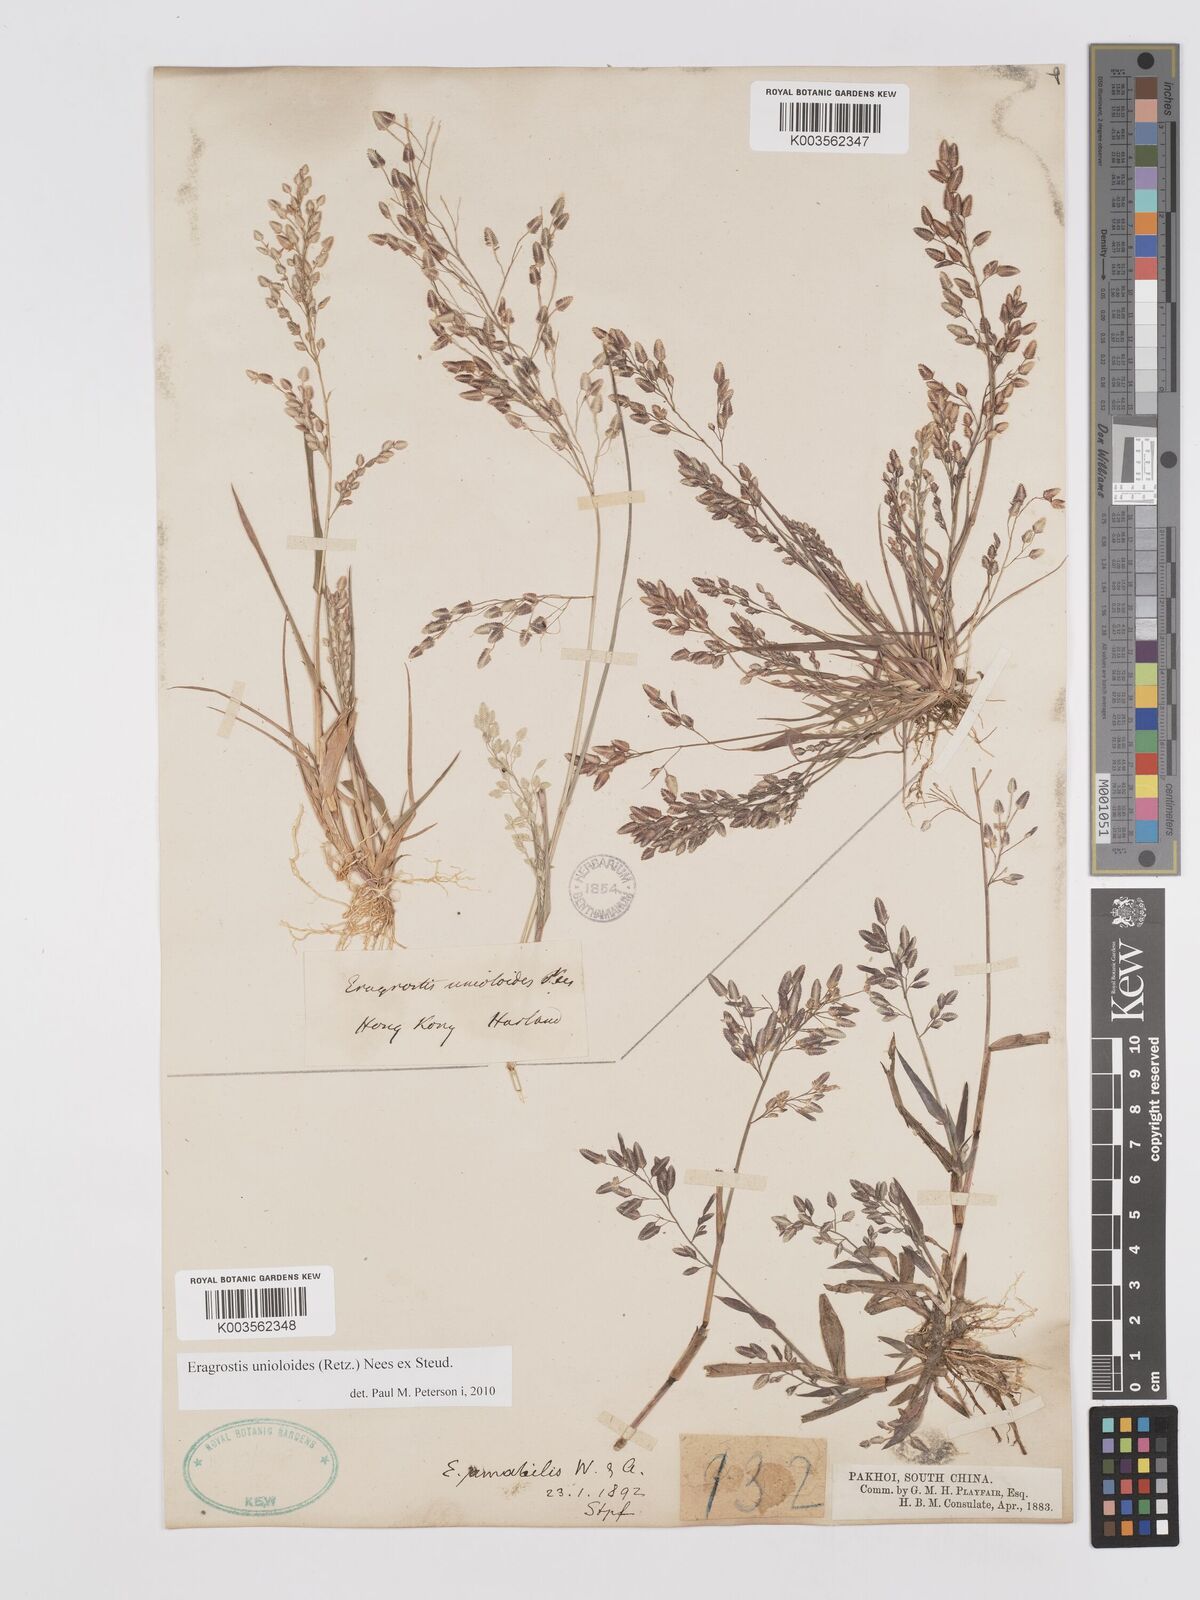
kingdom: Plantae
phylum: Tracheophyta
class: Liliopsida
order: Poales
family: Poaceae
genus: Eragrostis
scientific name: Eragrostis unioloides
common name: Chinese lovegrass
